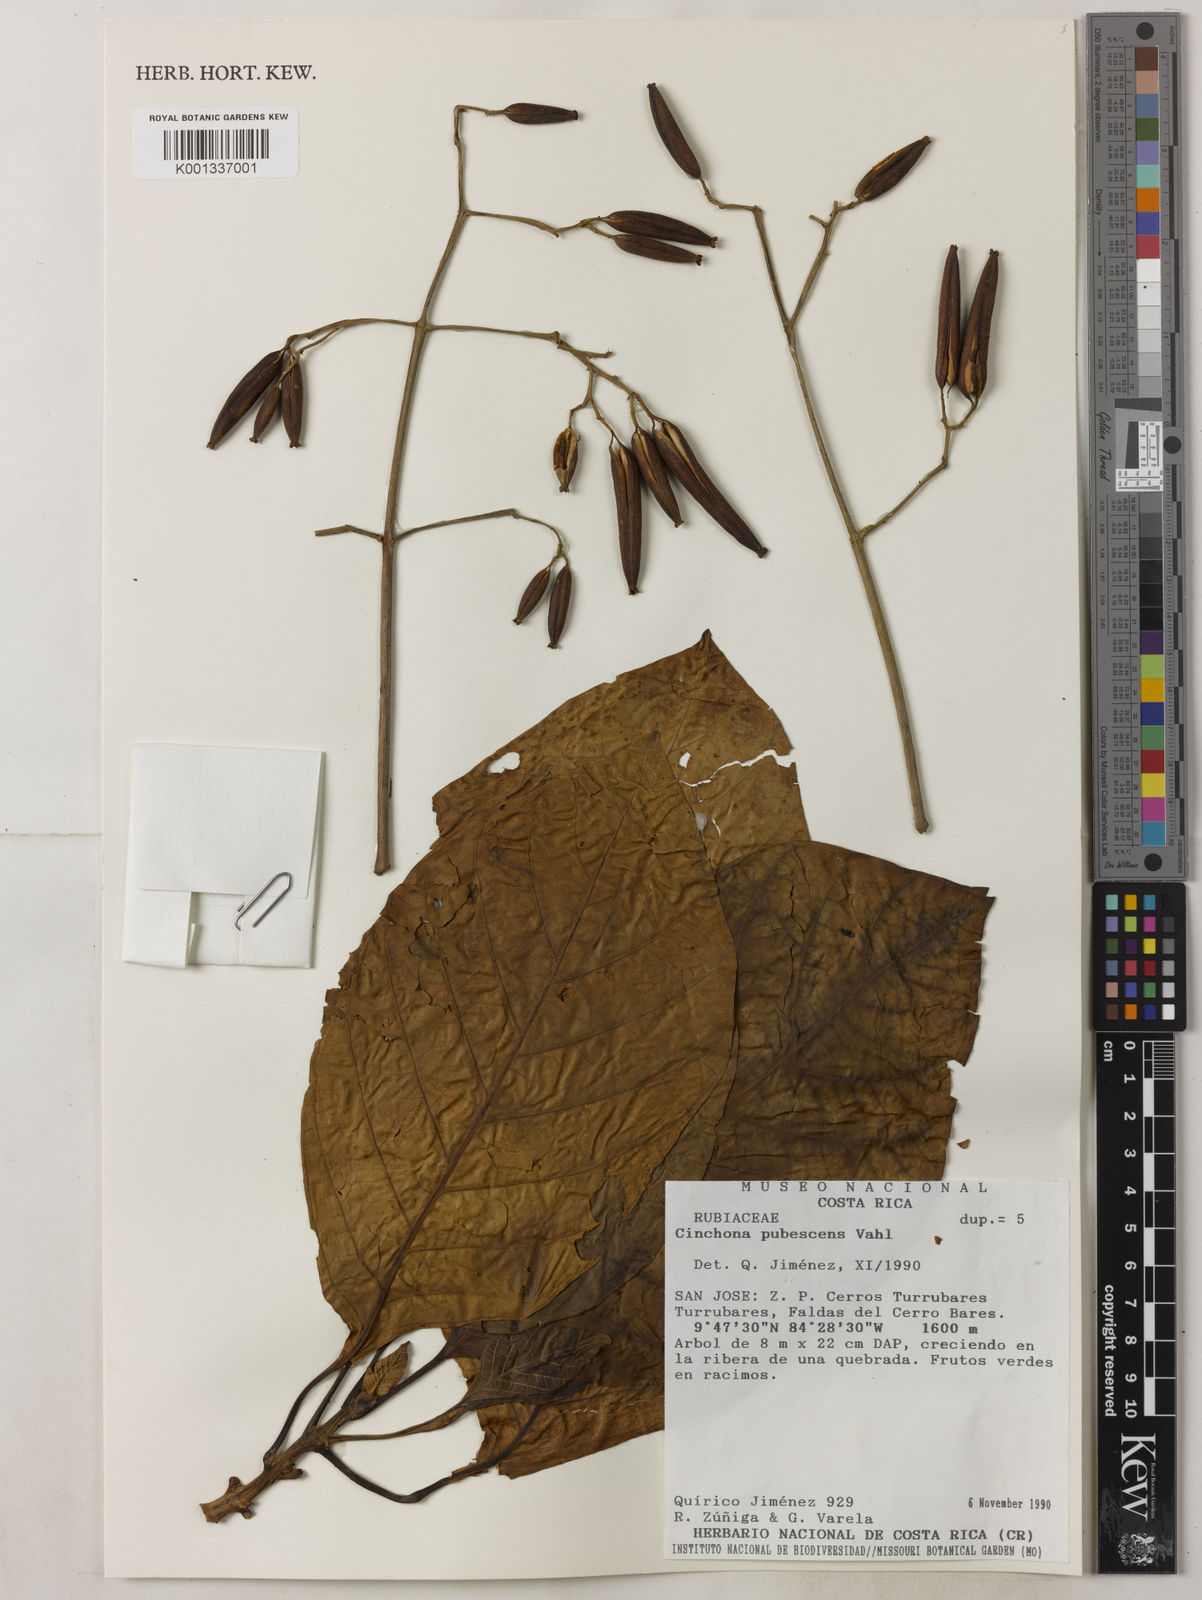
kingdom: Plantae
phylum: Tracheophyta
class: Magnoliopsida
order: Gentianales
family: Rubiaceae
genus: Cinchona
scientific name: Cinchona pubescens
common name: Quinine
